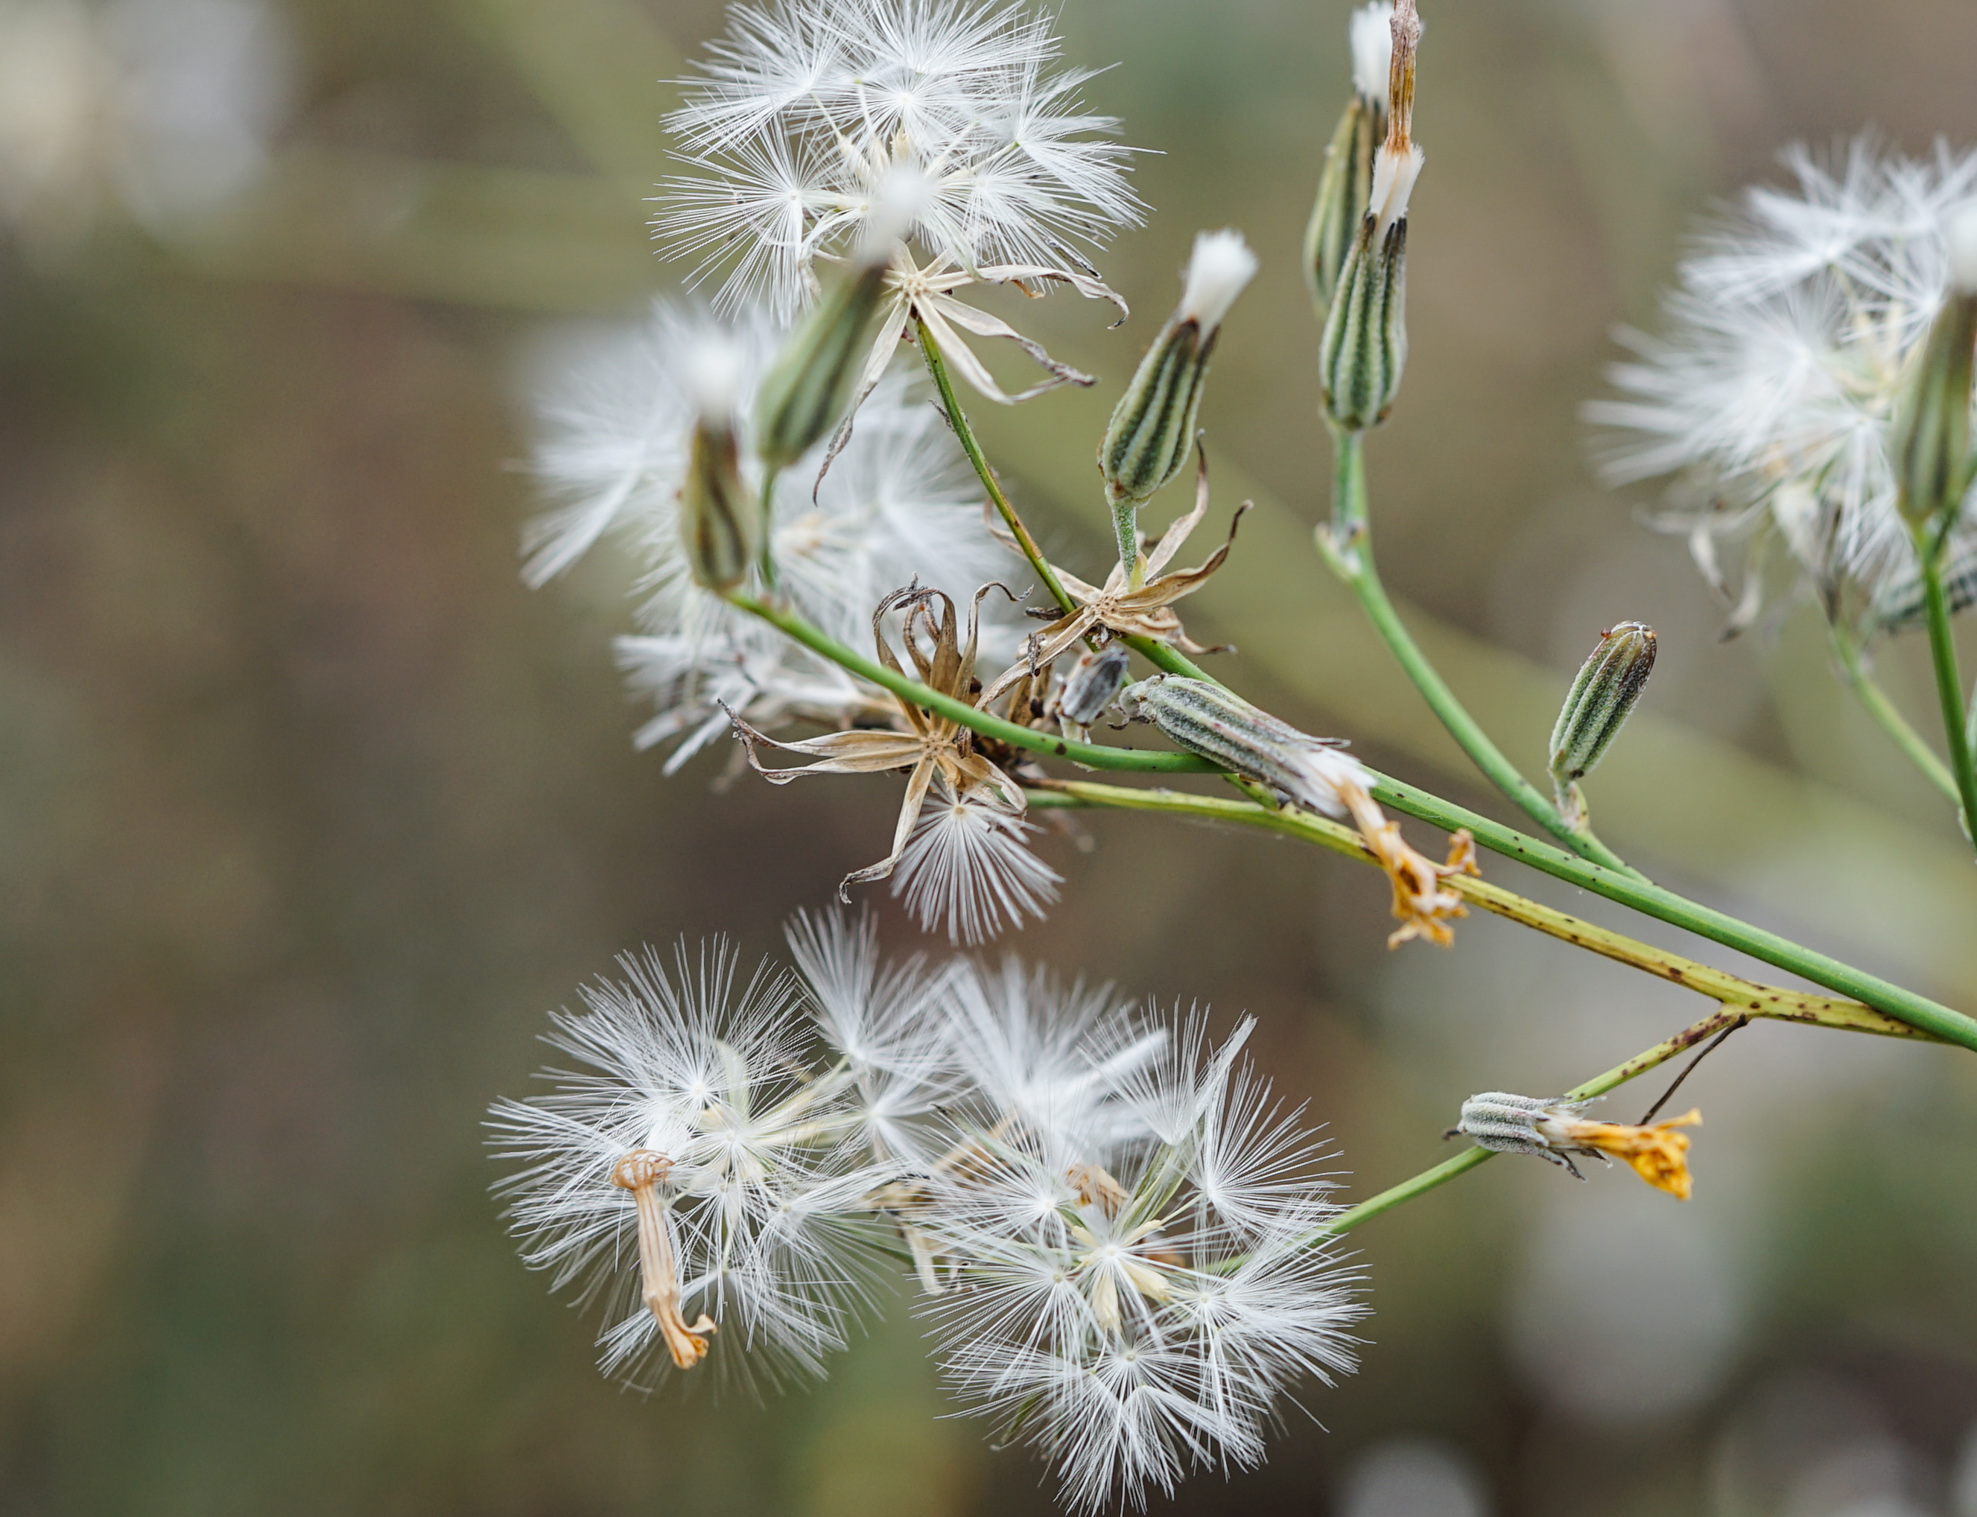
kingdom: Plantae
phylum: Tracheophyta
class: Magnoliopsida
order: Asterales
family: Asteraceae
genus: Chondrilla
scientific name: Chondrilla juncea
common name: Skeleton weed
